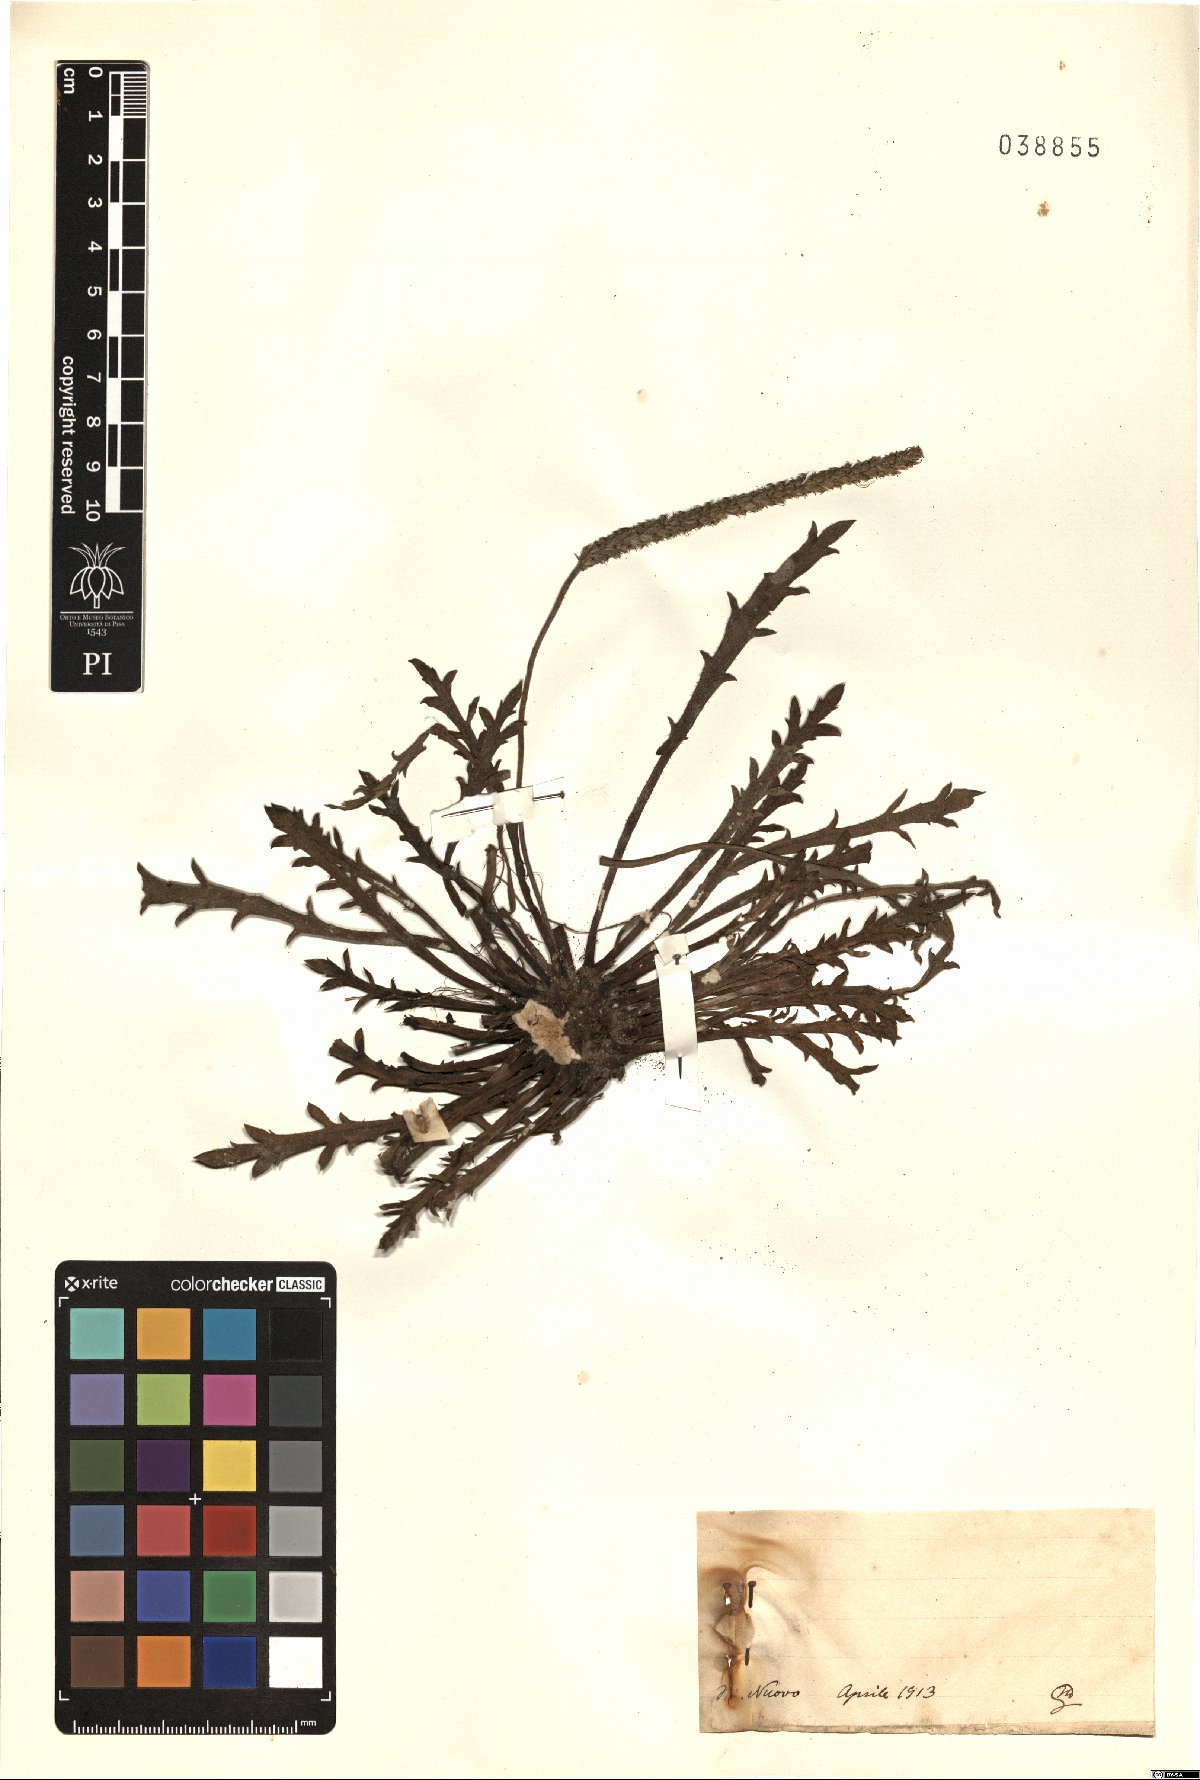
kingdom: Plantae
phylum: Tracheophyta
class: Magnoliopsida
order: Lamiales
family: Plantaginaceae
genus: Plantago
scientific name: Plantago
